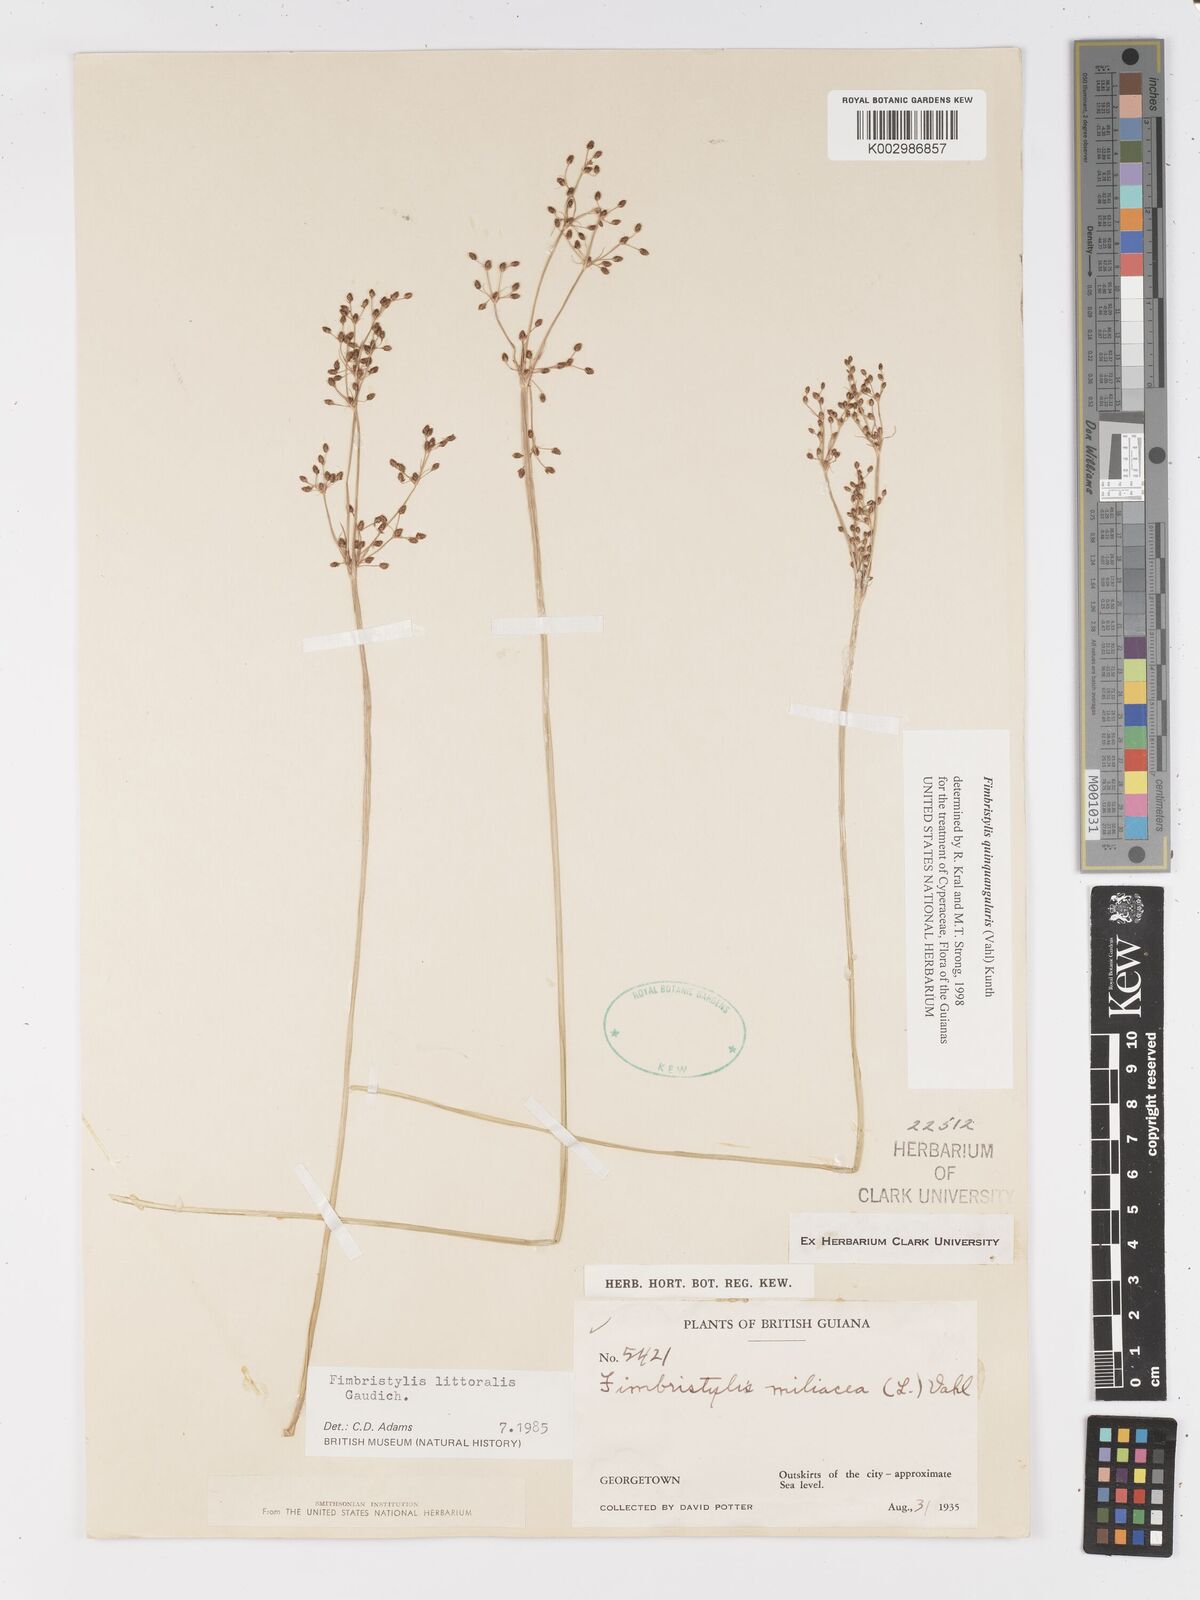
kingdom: Plantae
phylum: Tracheophyta
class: Liliopsida
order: Poales
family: Cyperaceae
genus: Fimbristylis
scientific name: Fimbristylis quinquangularis
